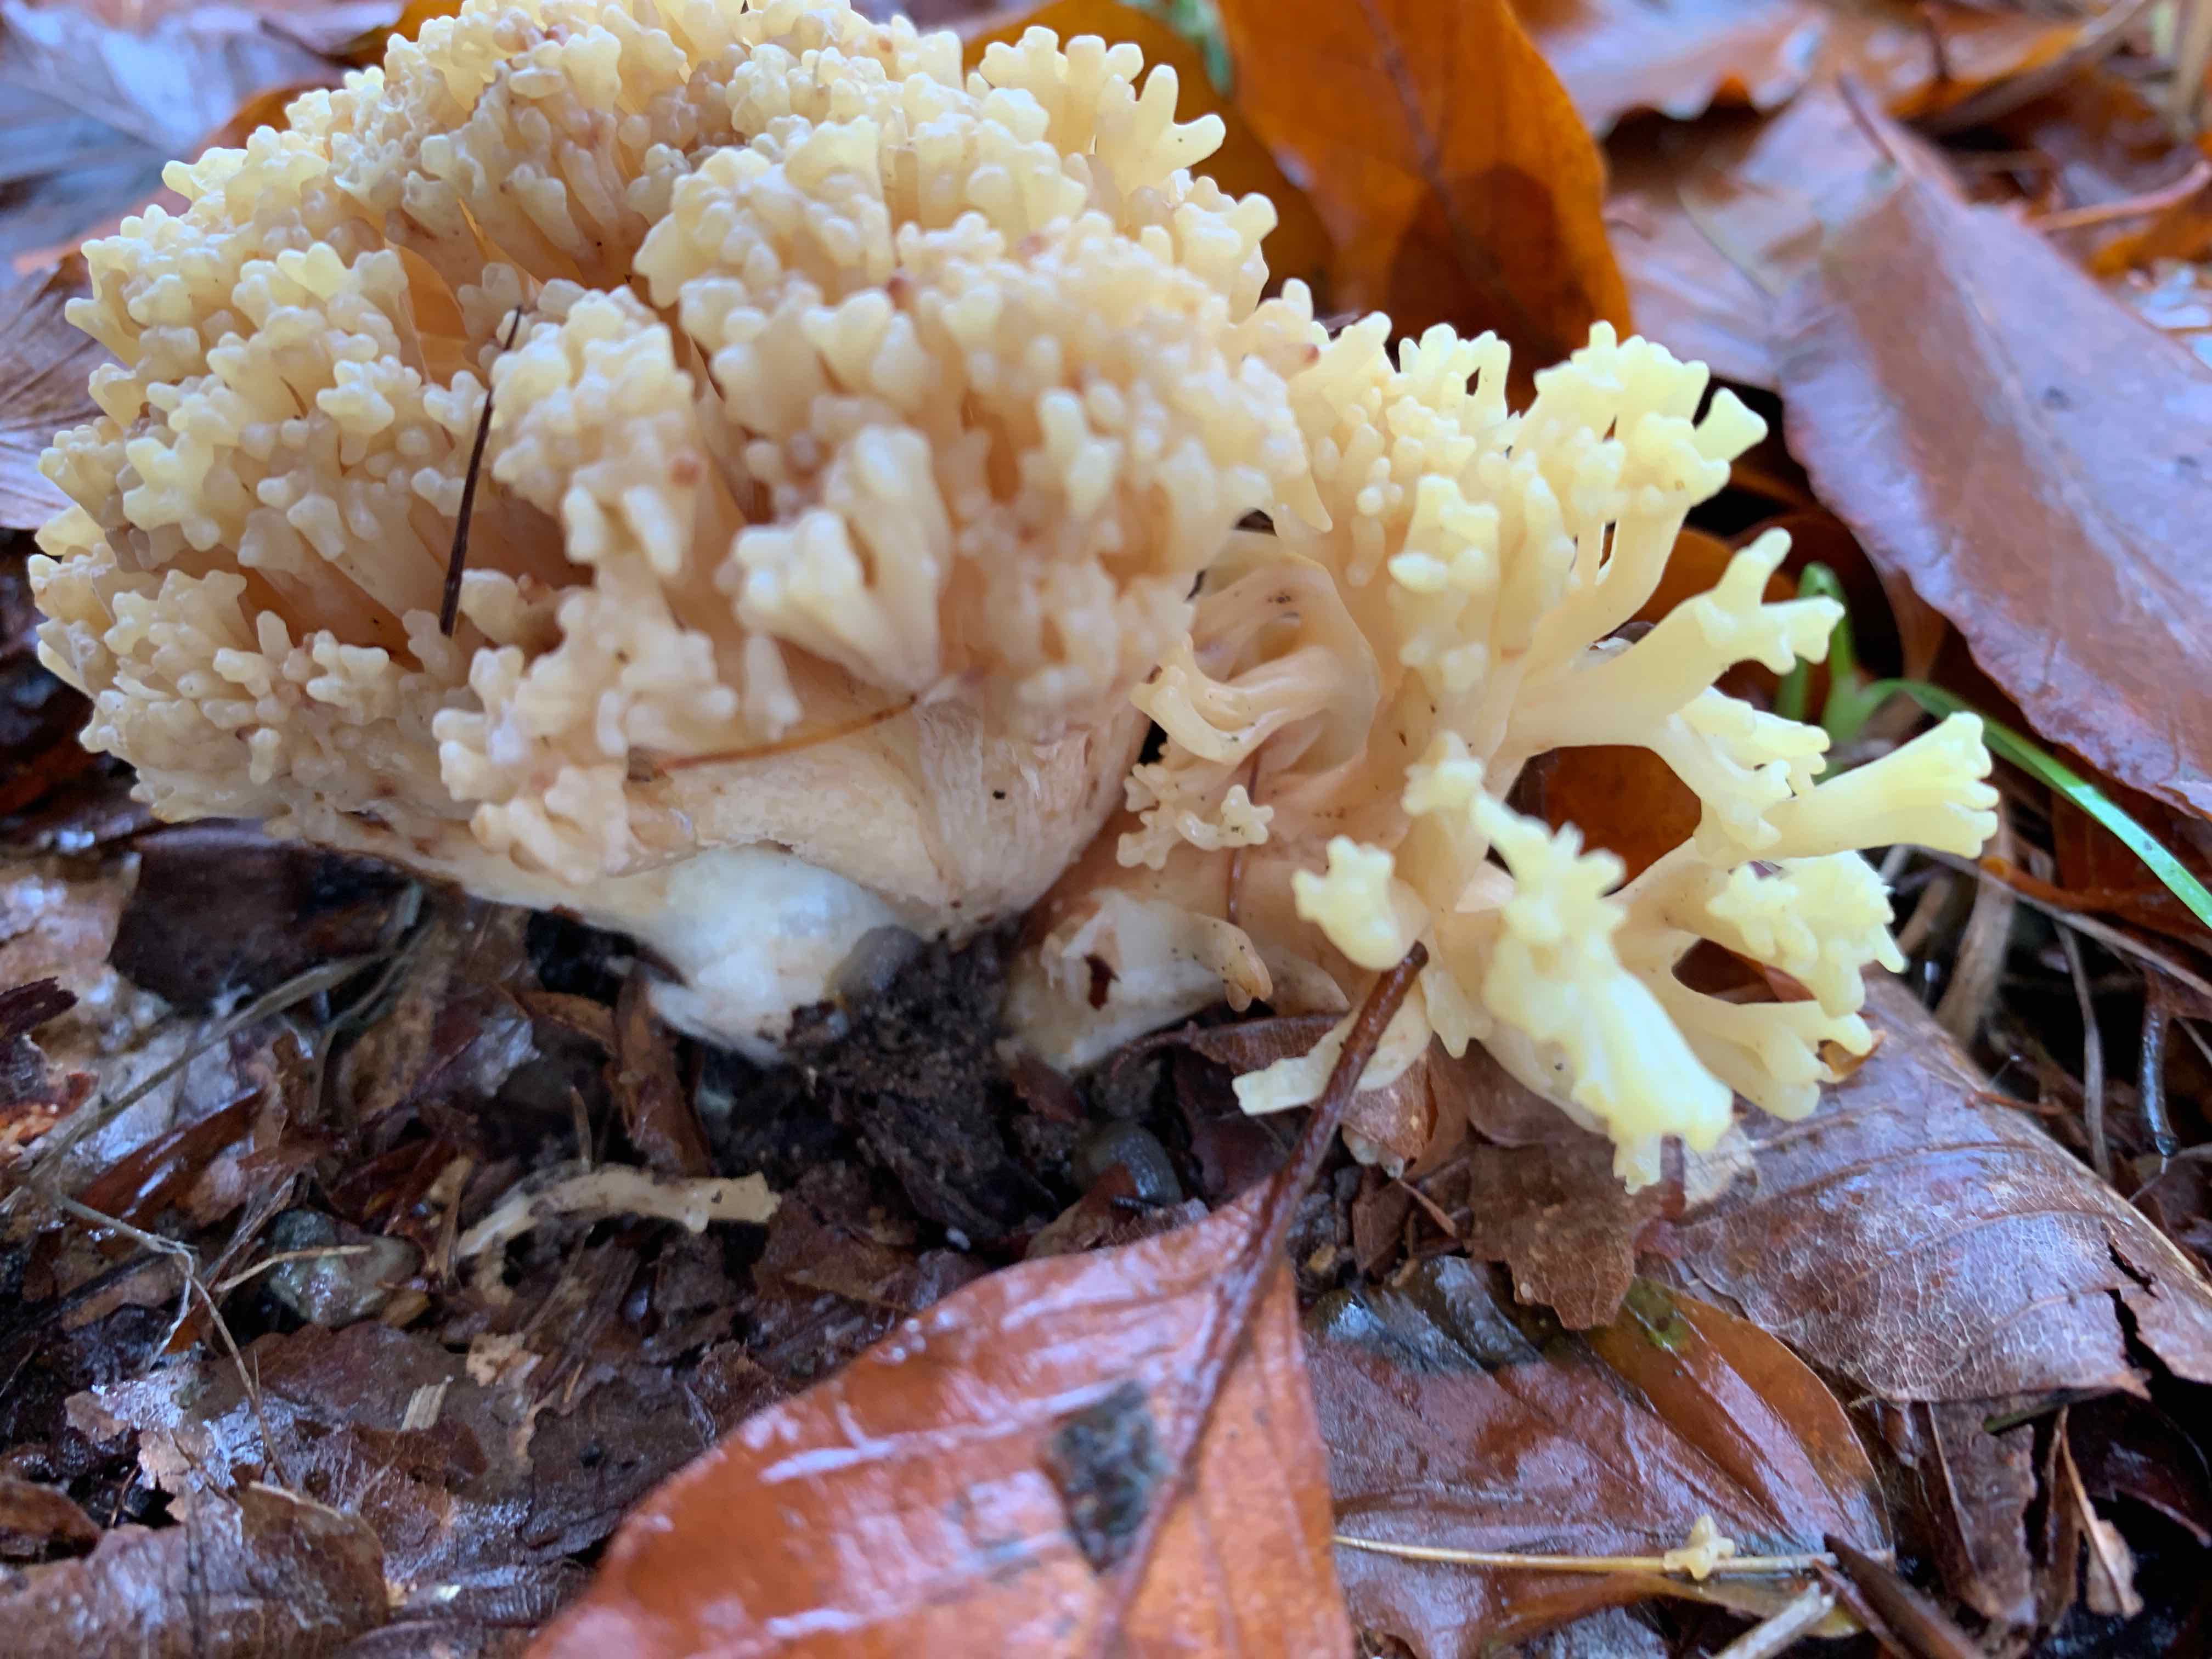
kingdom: Fungi
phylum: Basidiomycota
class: Agaricomycetes
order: Gomphales
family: Gomphaceae
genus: Ramaria
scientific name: Ramaria
